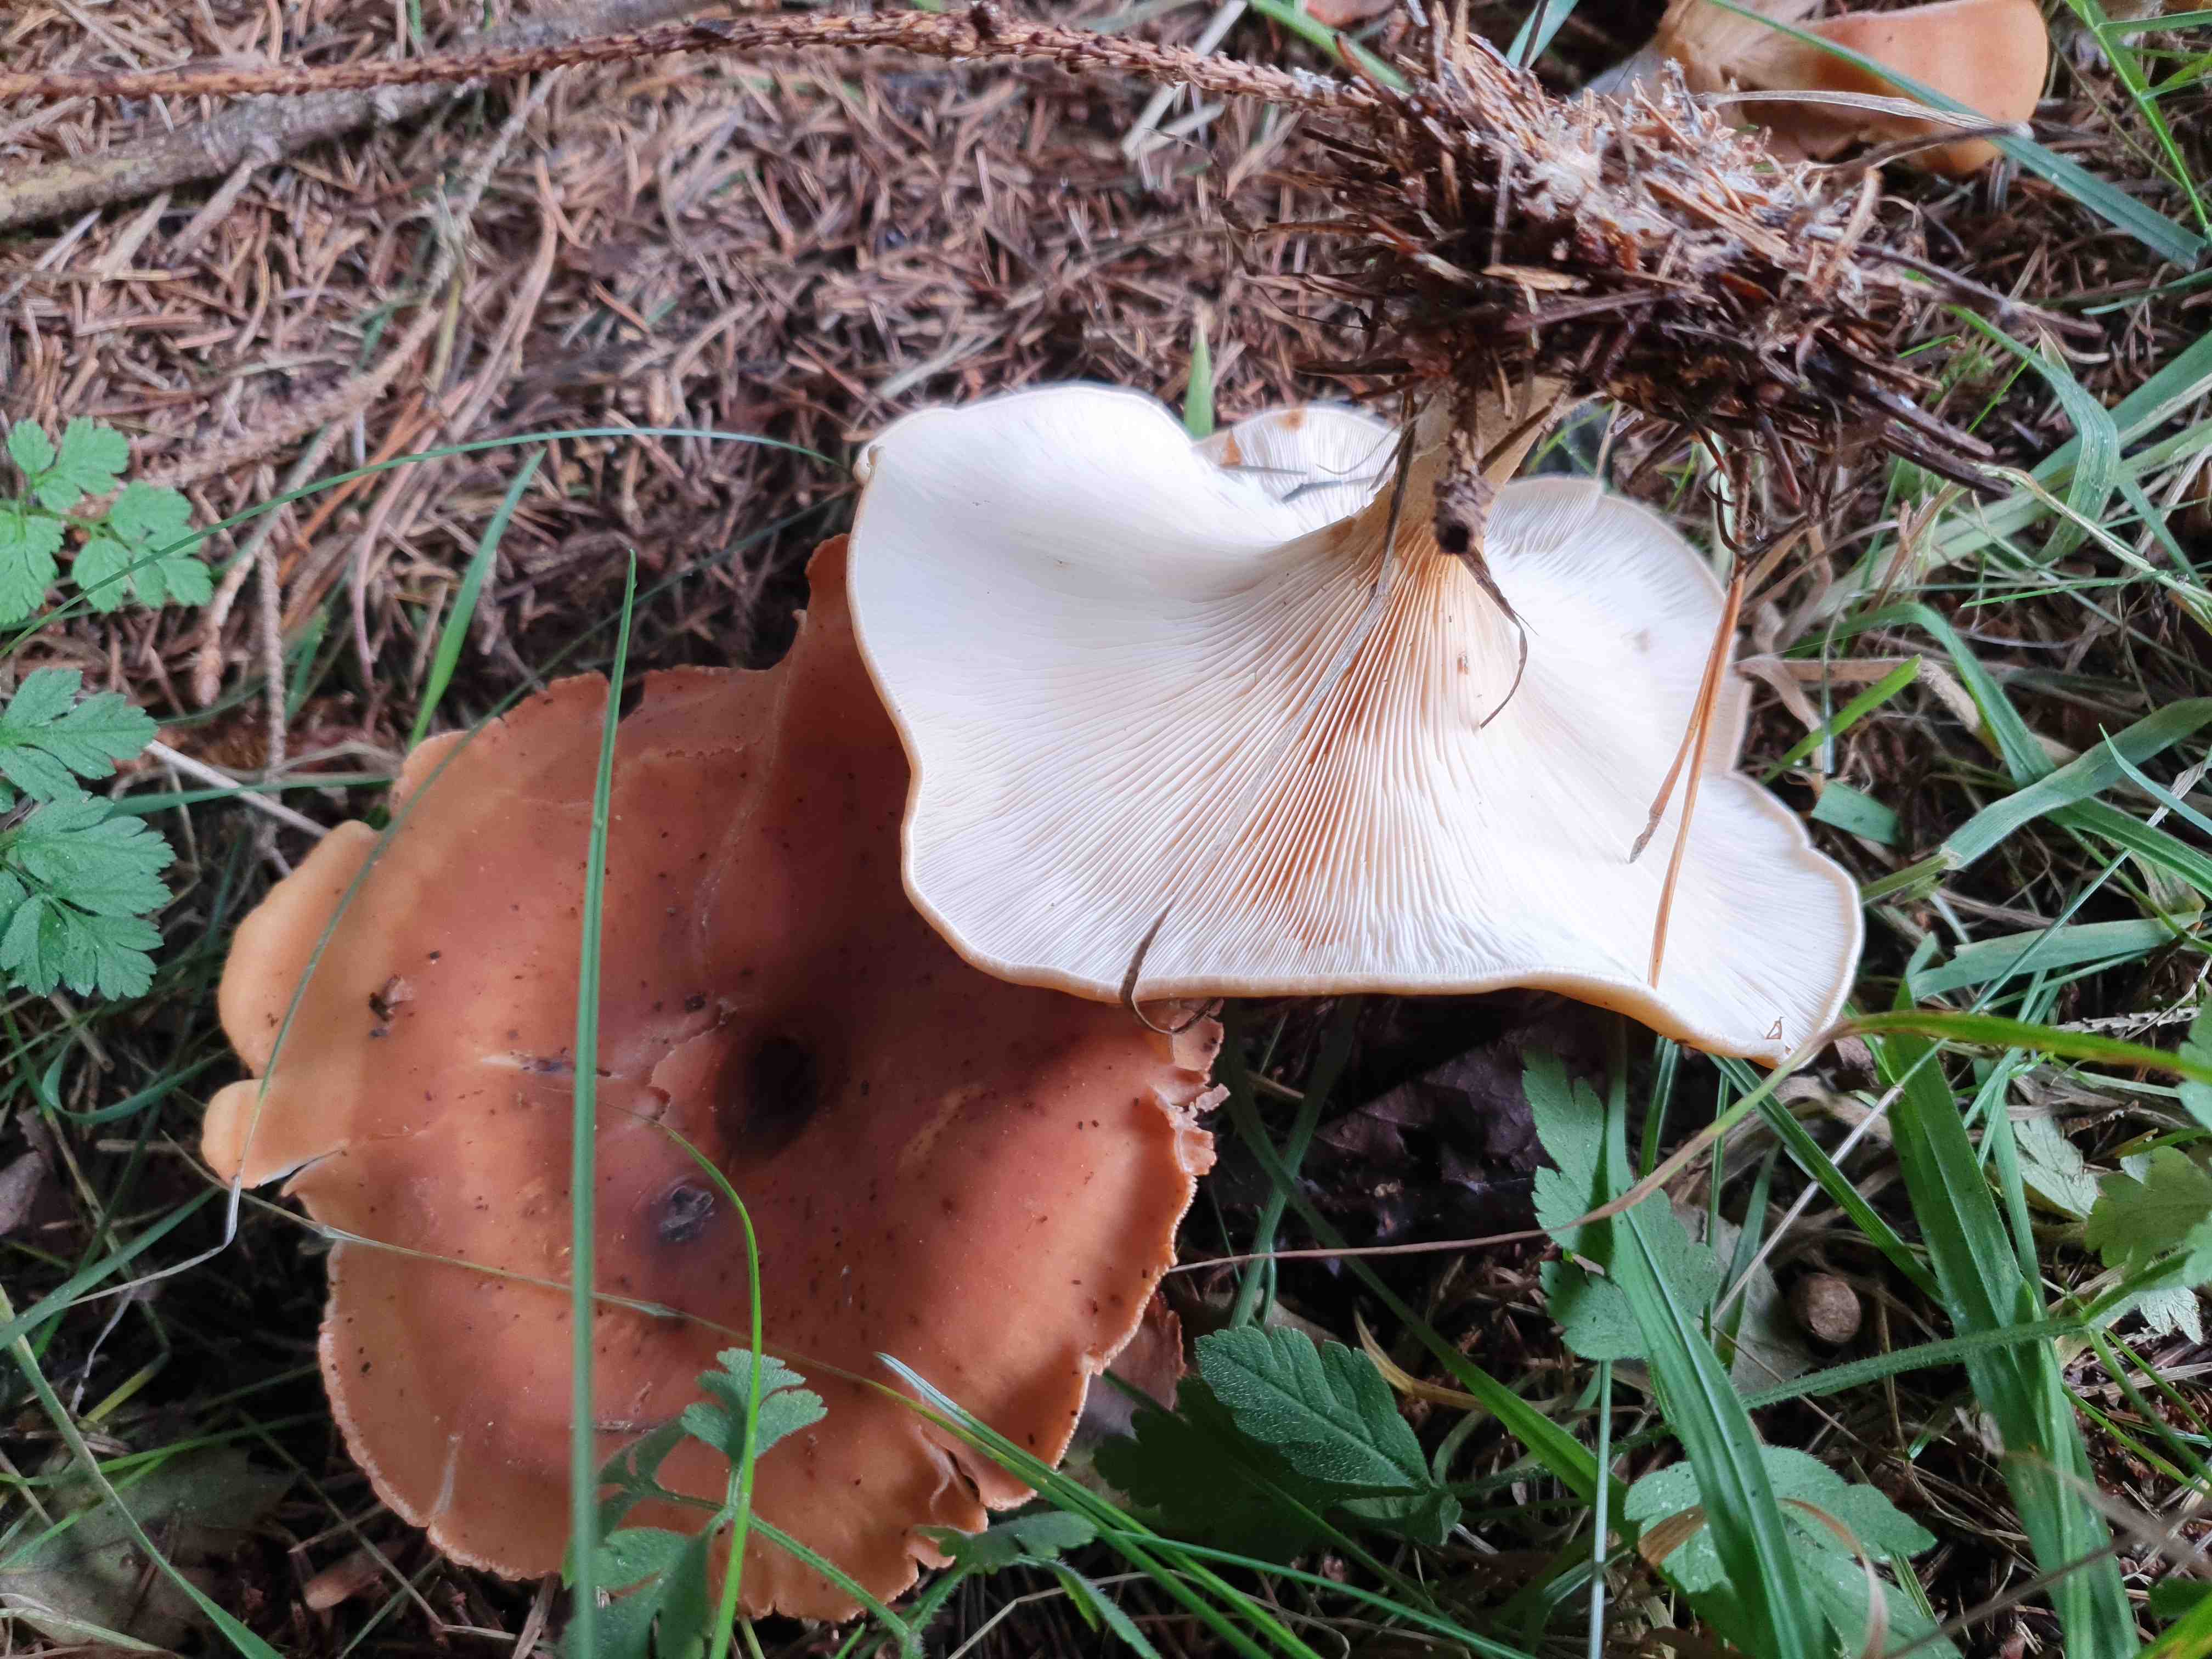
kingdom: Fungi
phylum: Basidiomycota
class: Agaricomycetes
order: Agaricales
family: Tricholomataceae
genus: Paralepista
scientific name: Paralepista flaccida
